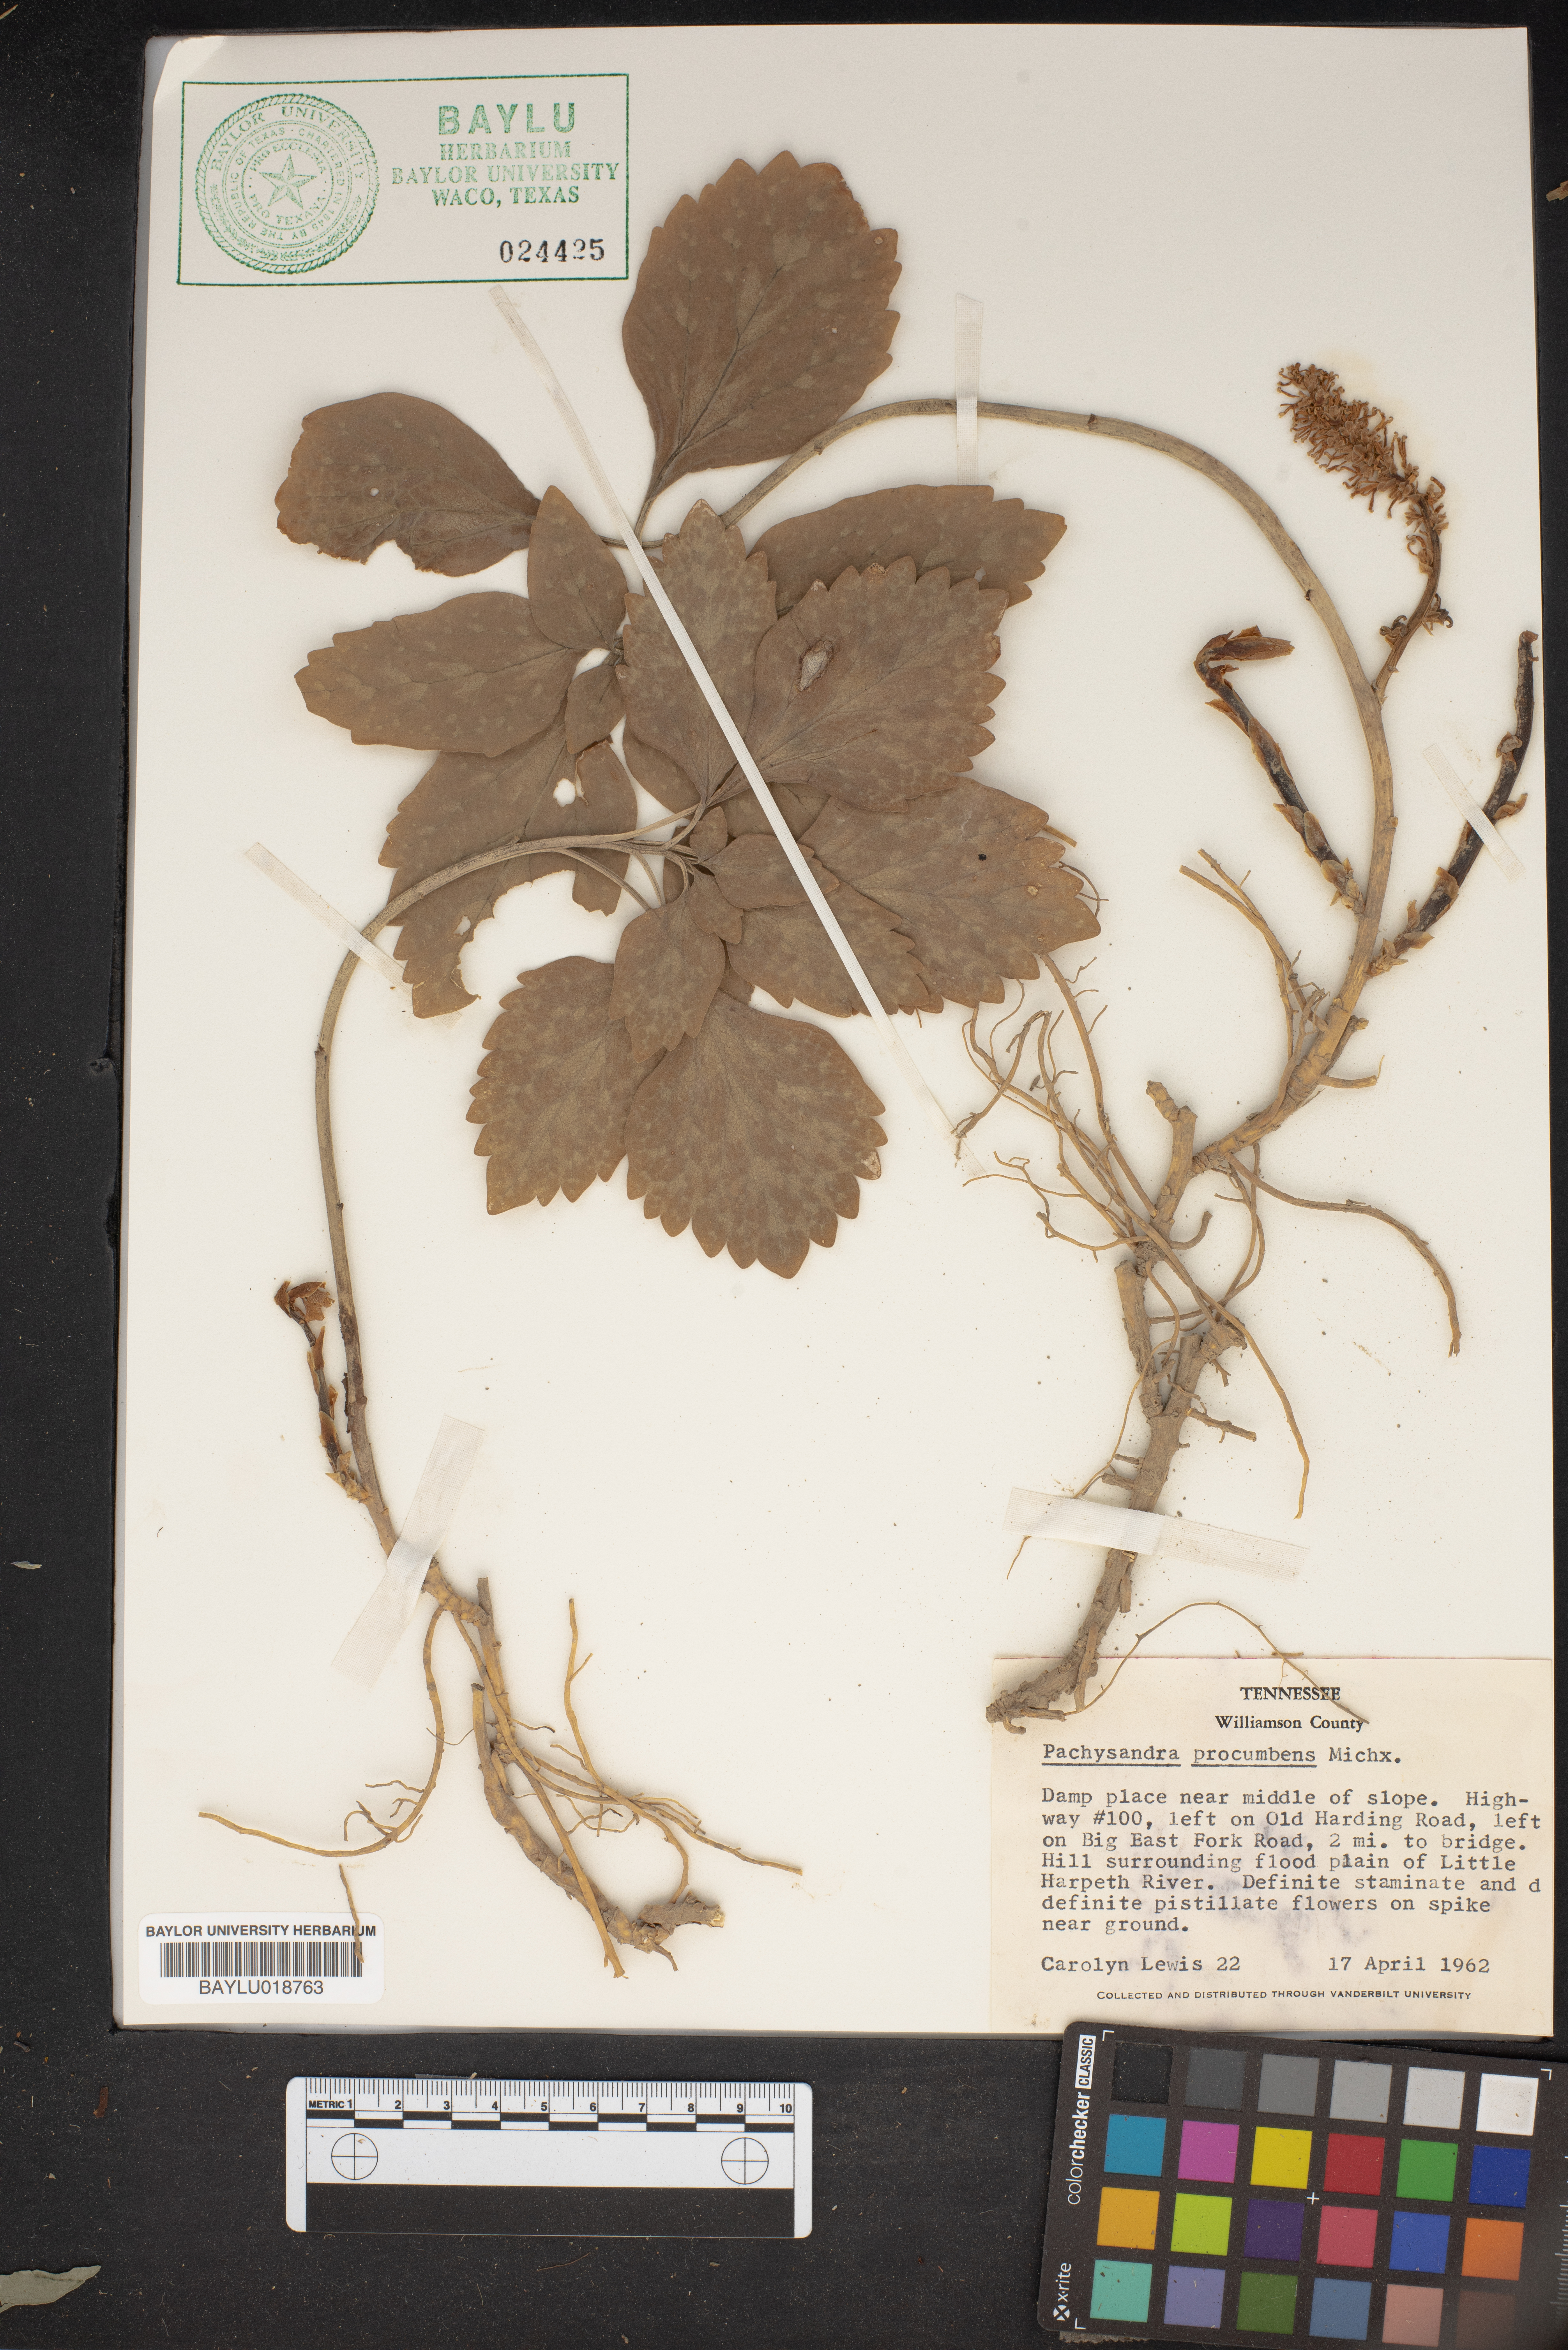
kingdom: Plantae
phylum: Tracheophyta
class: Magnoliopsida
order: Buxales
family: Buxaceae
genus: Pachysandra
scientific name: Pachysandra procumbens
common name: Mountain-spurge
